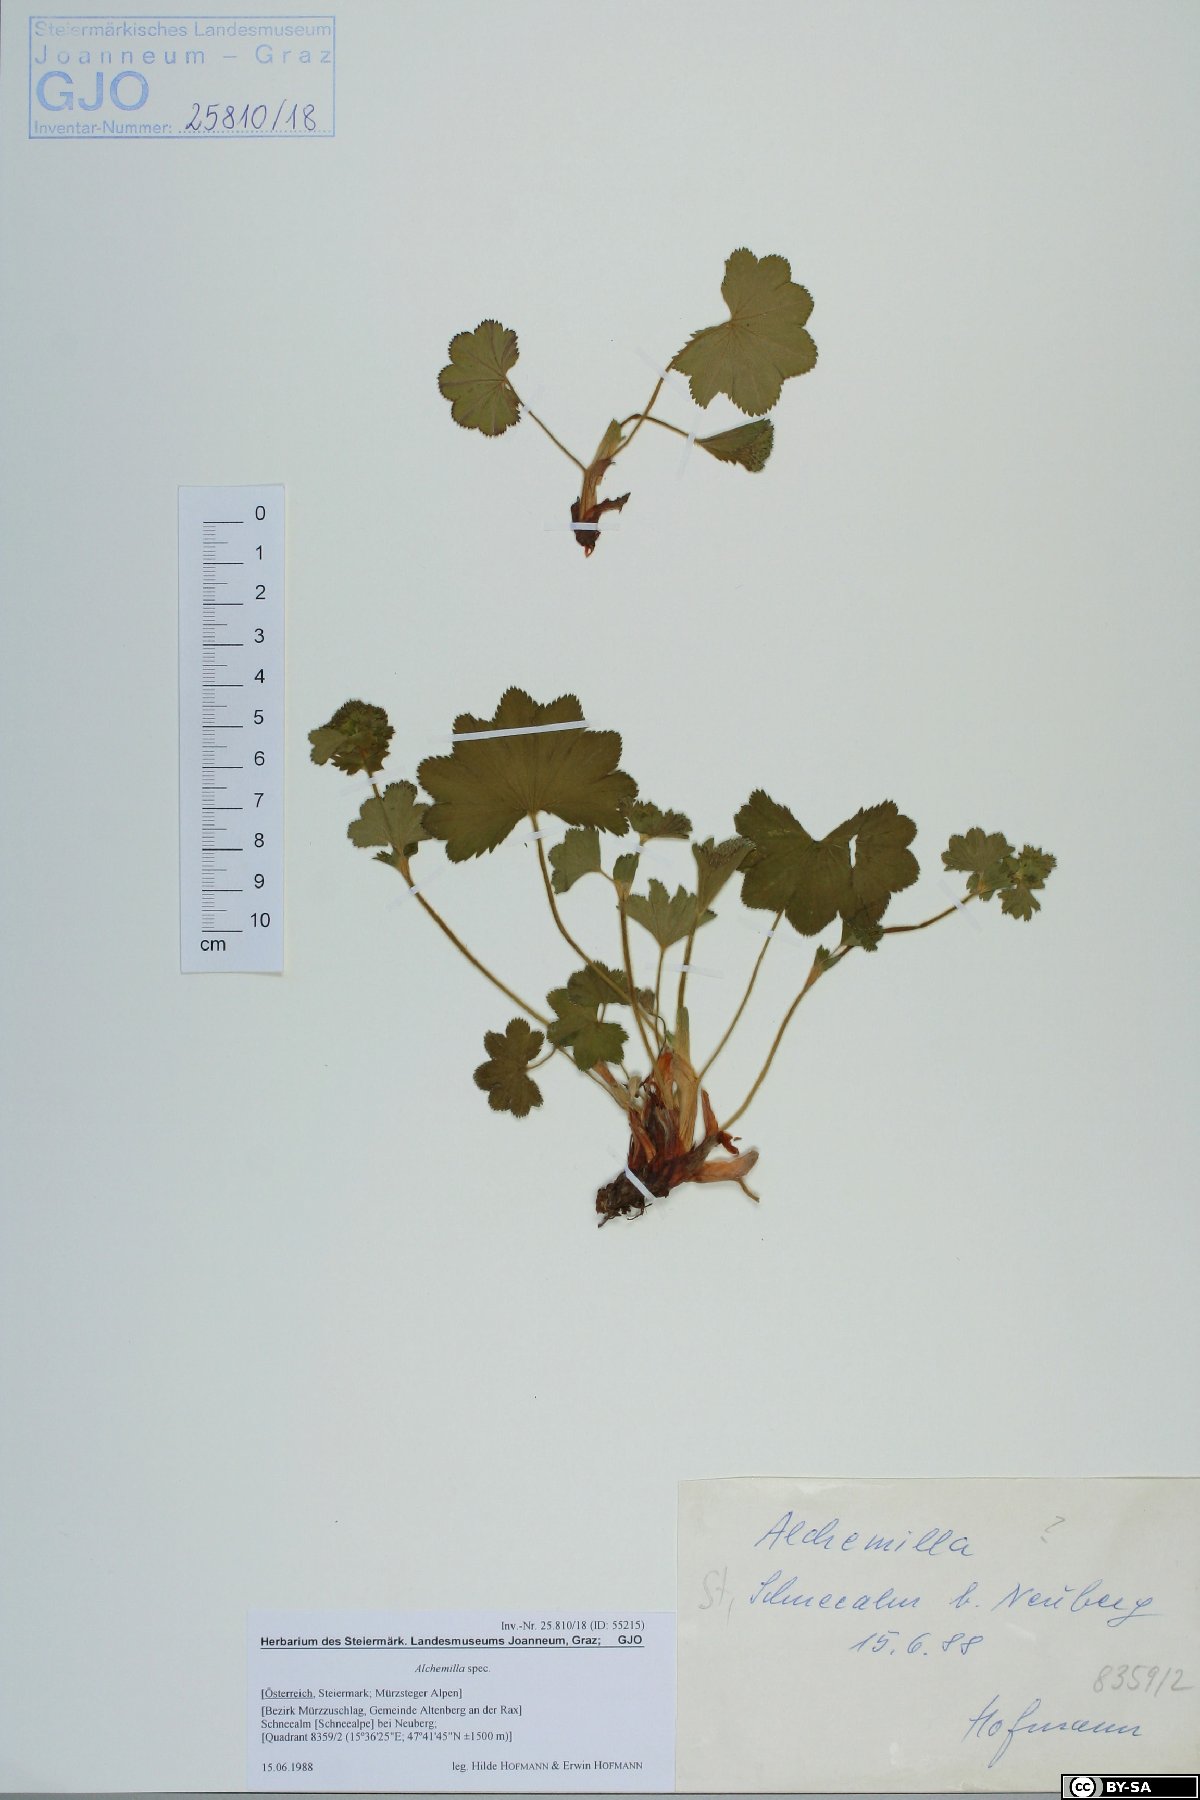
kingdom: Plantae
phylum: Tracheophyta
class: Magnoliopsida
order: Rosales
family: Rosaceae
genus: Alchemilla
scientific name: Alchemilla
